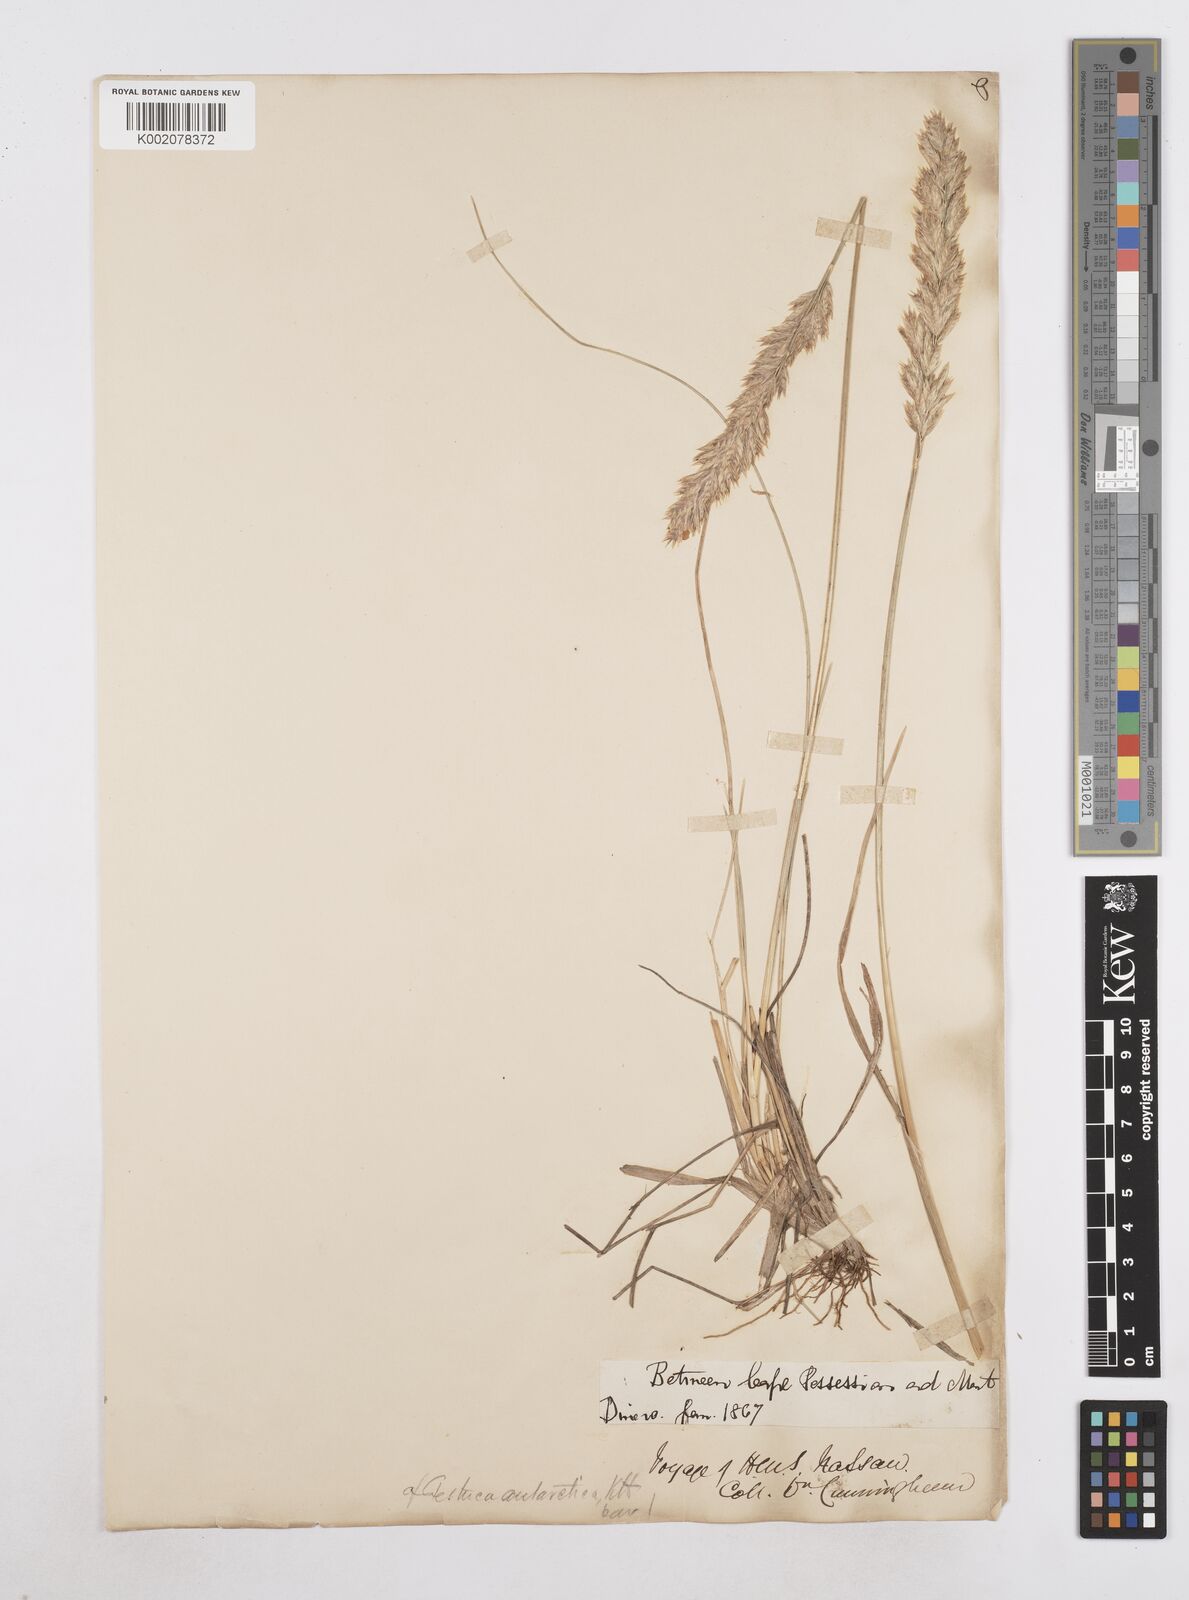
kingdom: Plantae
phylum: Tracheophyta
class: Liliopsida
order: Poales
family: Poaceae
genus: Poa
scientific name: Poa alopecurus
